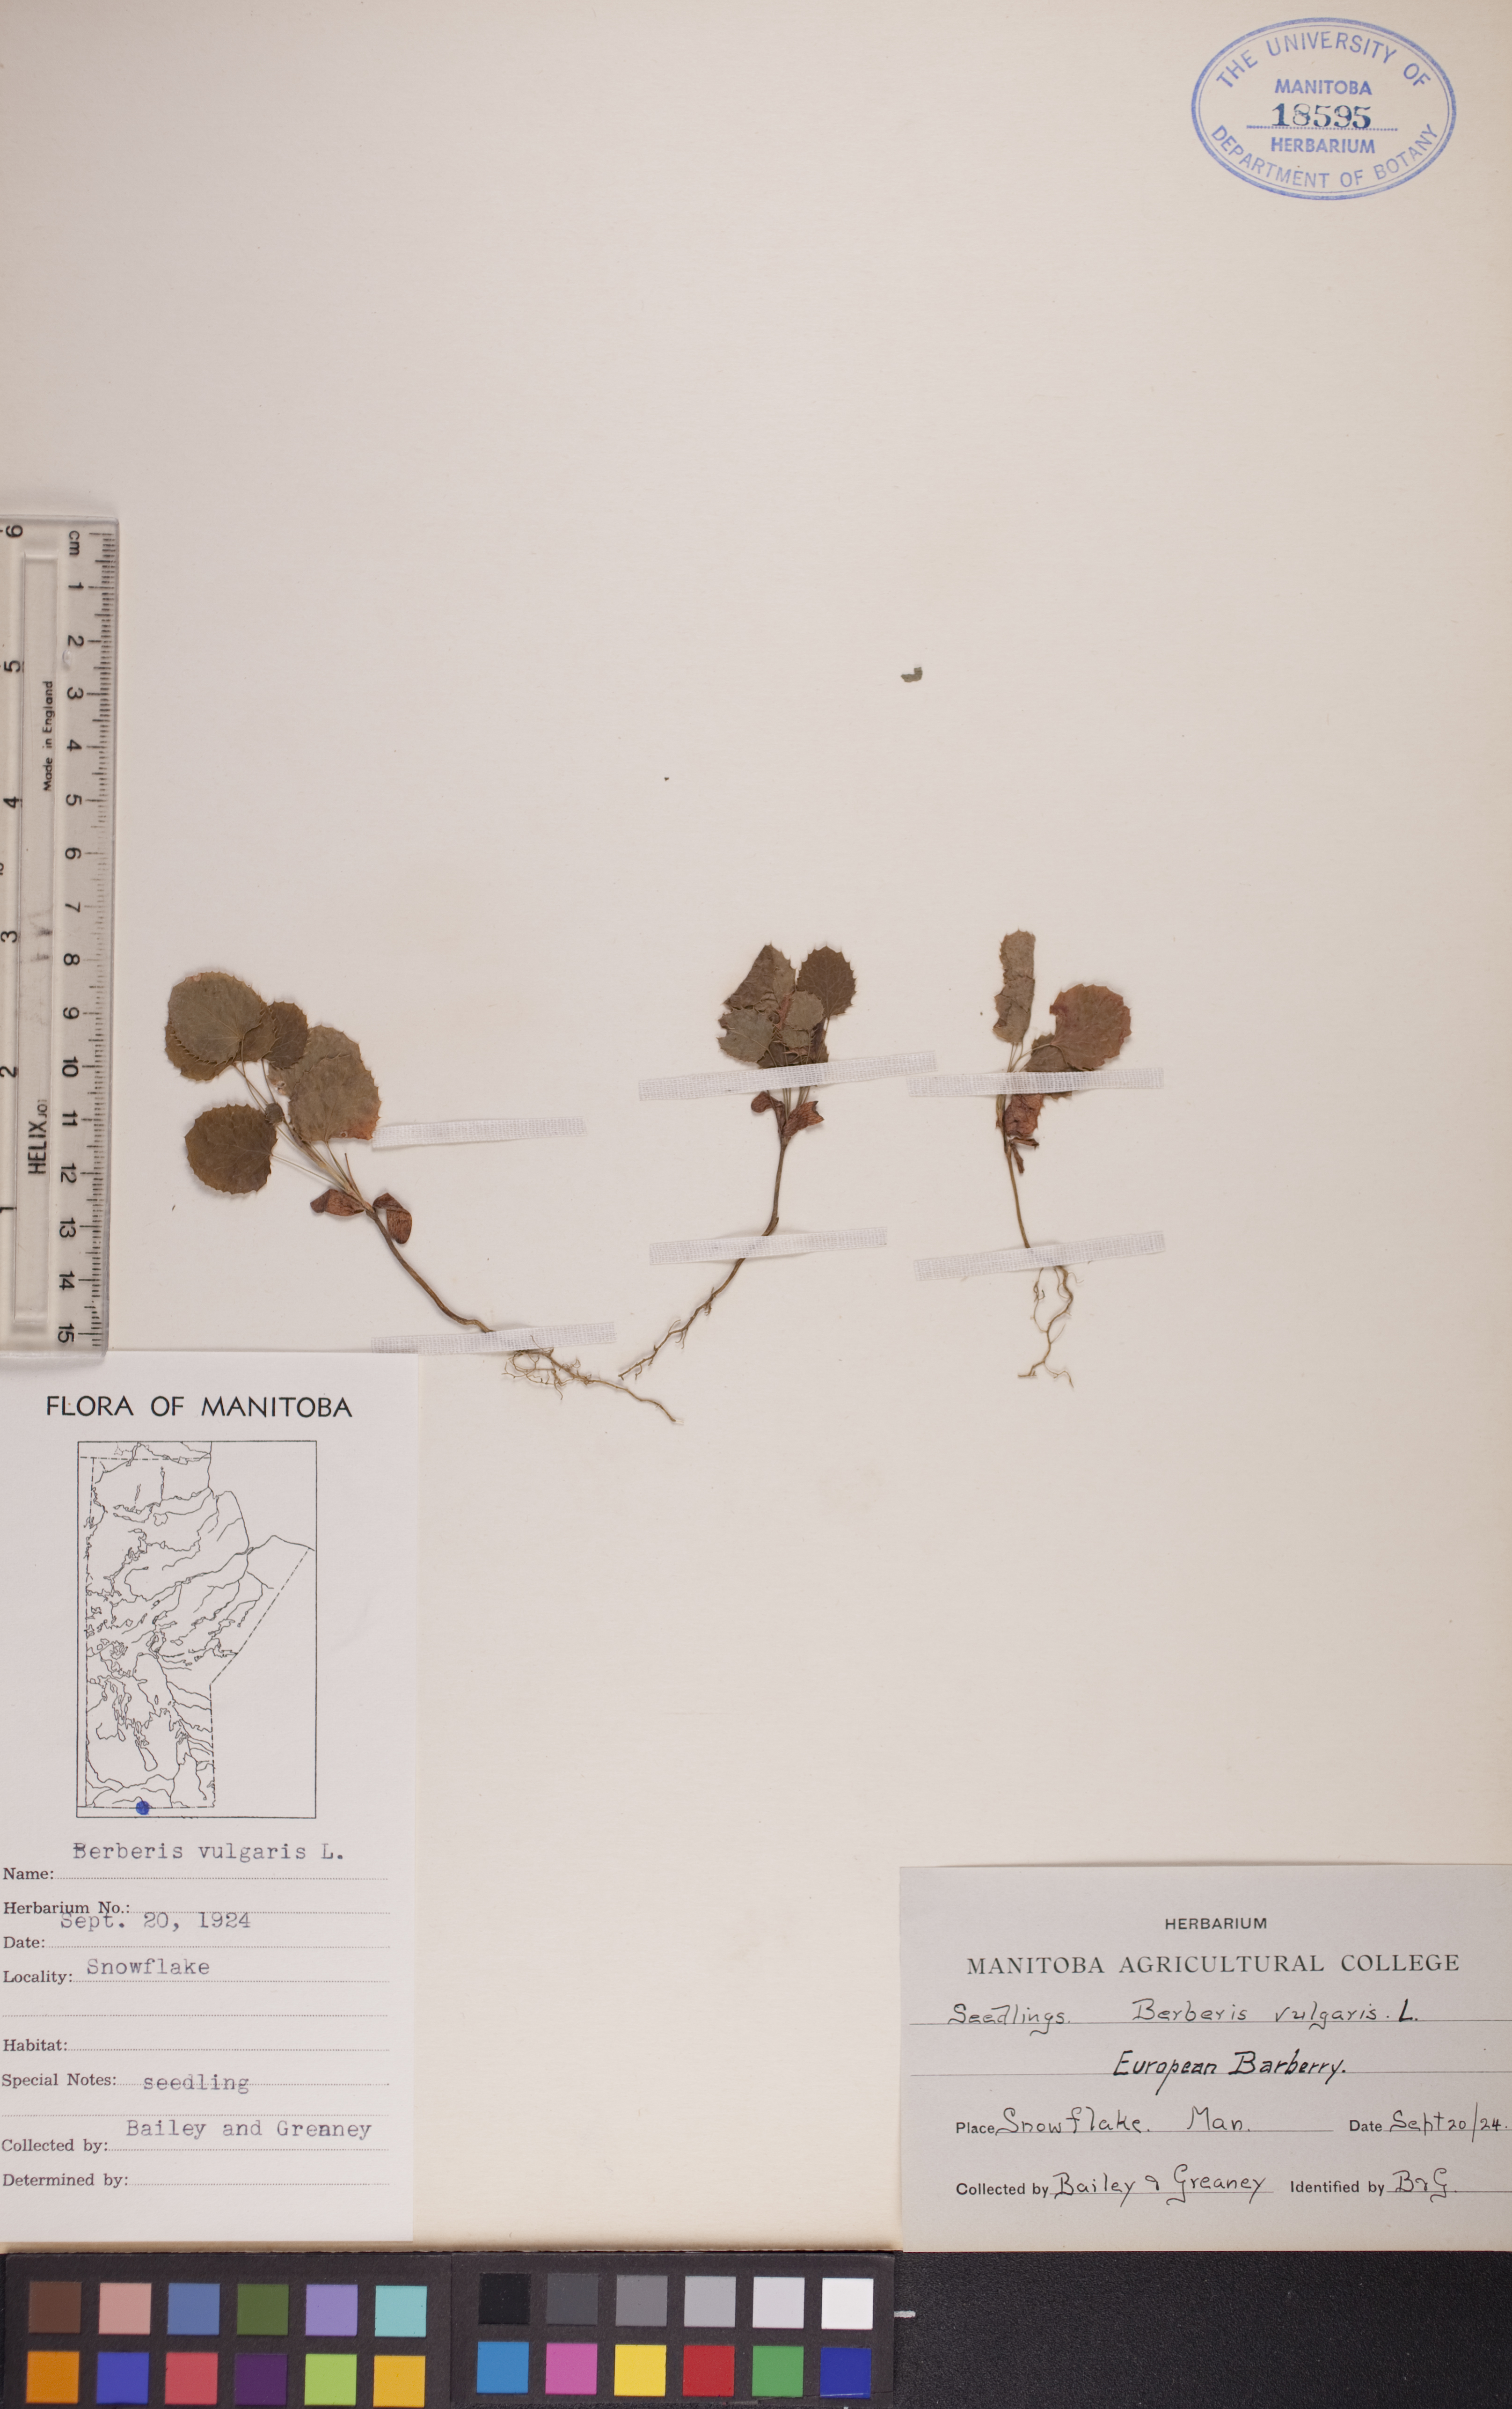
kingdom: Plantae
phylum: Tracheophyta
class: Magnoliopsida
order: Ranunculales
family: Berberidaceae
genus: Berberis
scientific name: Berberis vulgaris
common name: Barberry
